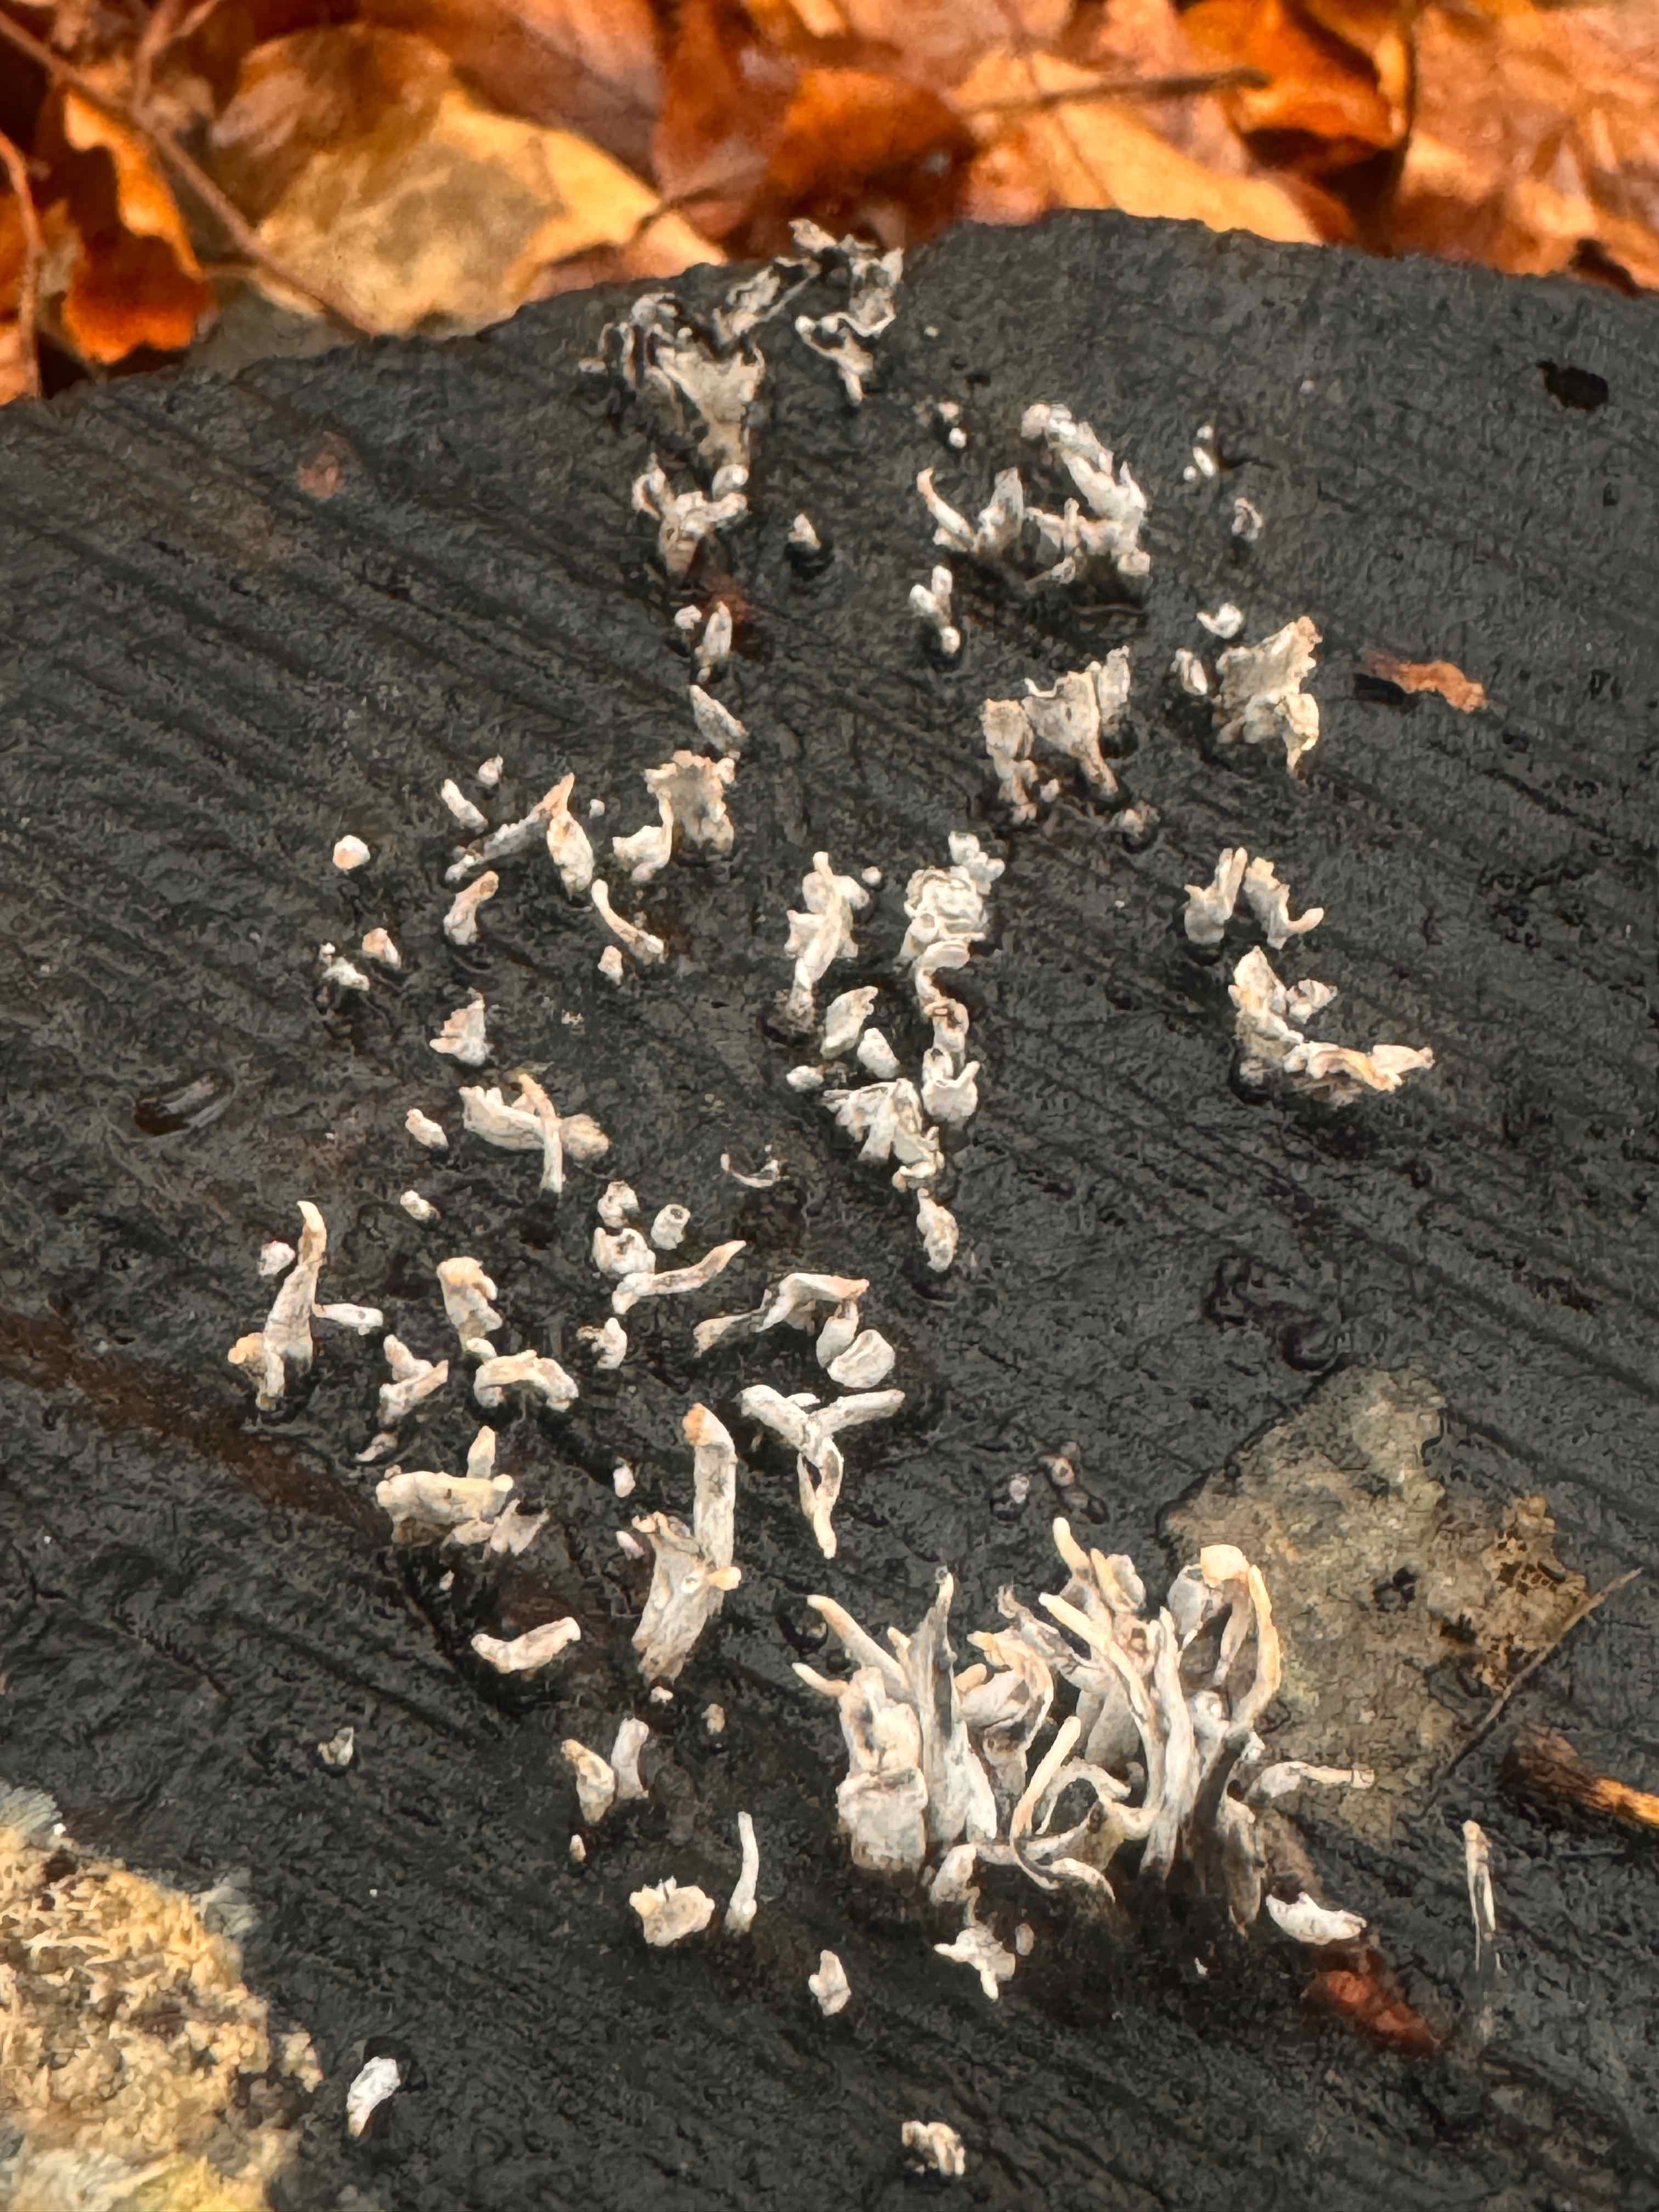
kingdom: Fungi
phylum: Ascomycota
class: Sordariomycetes
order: Xylariales
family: Xylariaceae
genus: Xylaria
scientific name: Xylaria hypoxylon
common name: grenet stødsvamp
